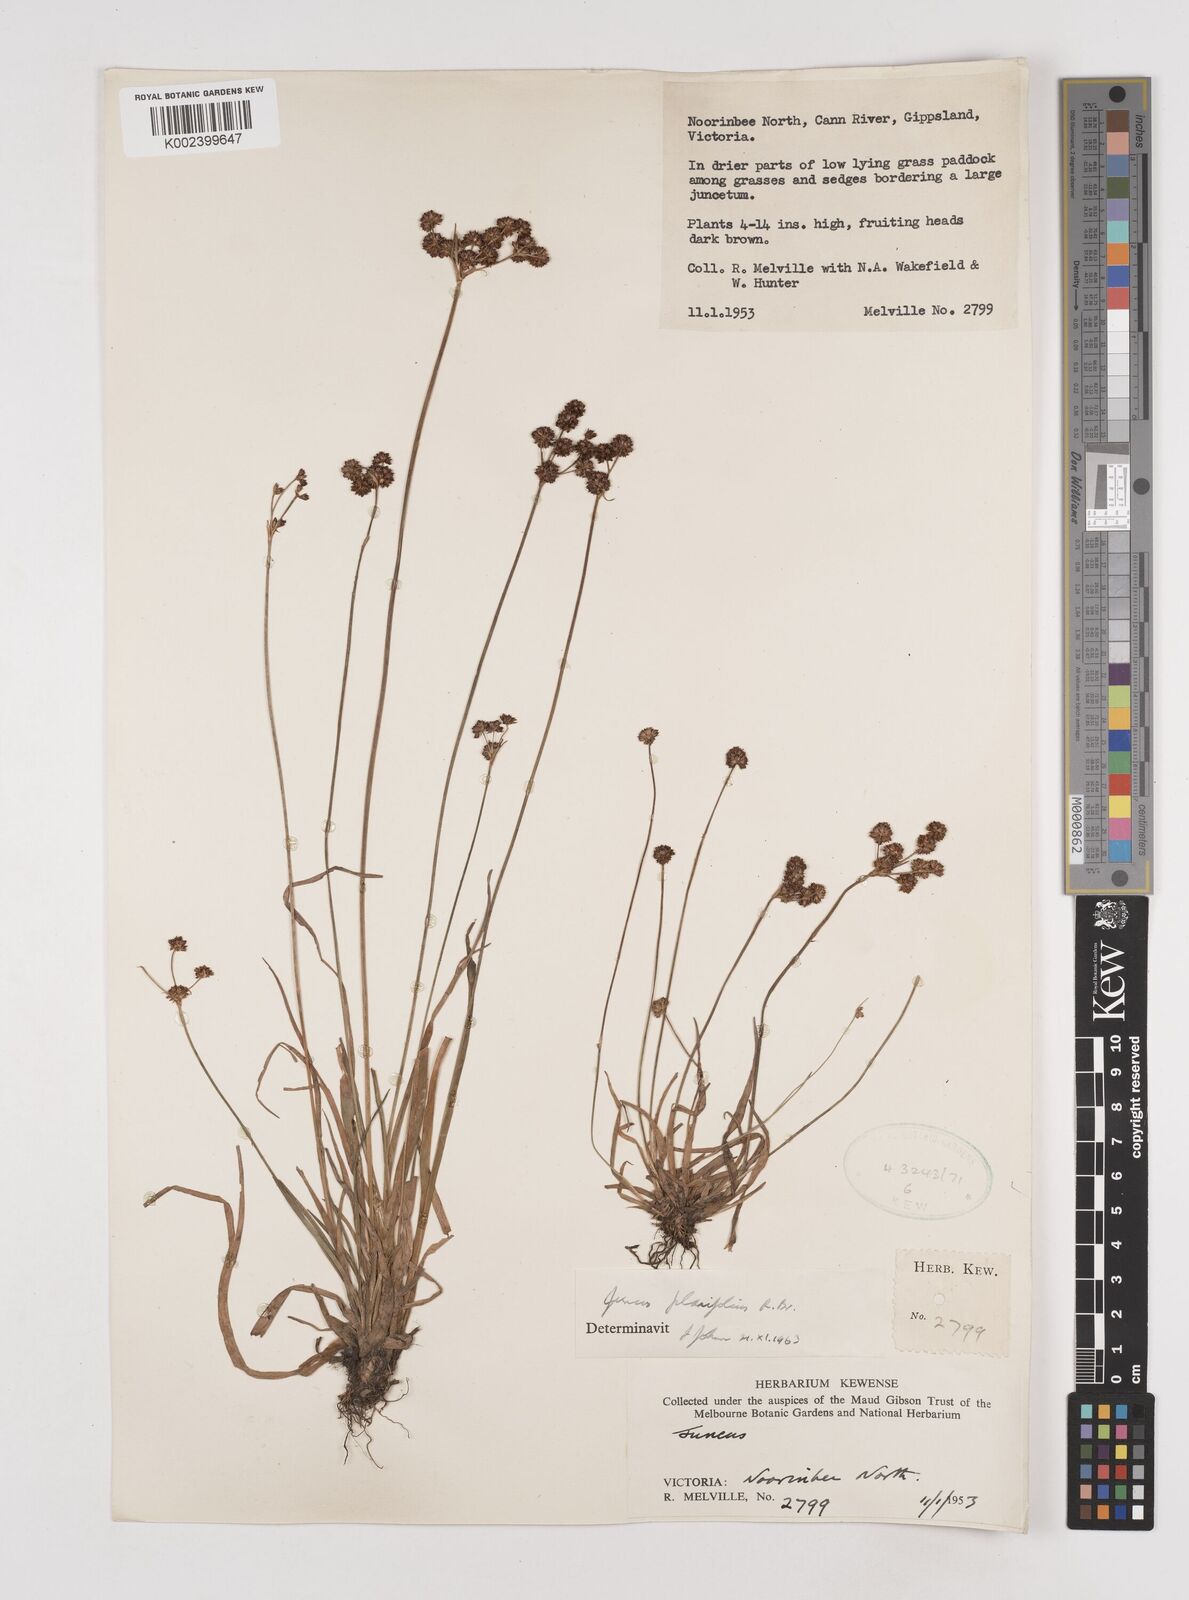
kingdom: Plantae
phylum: Tracheophyta
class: Liliopsida
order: Poales
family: Juncaceae
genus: Juncus
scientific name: Juncus planifolius
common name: Broadleaf rush
